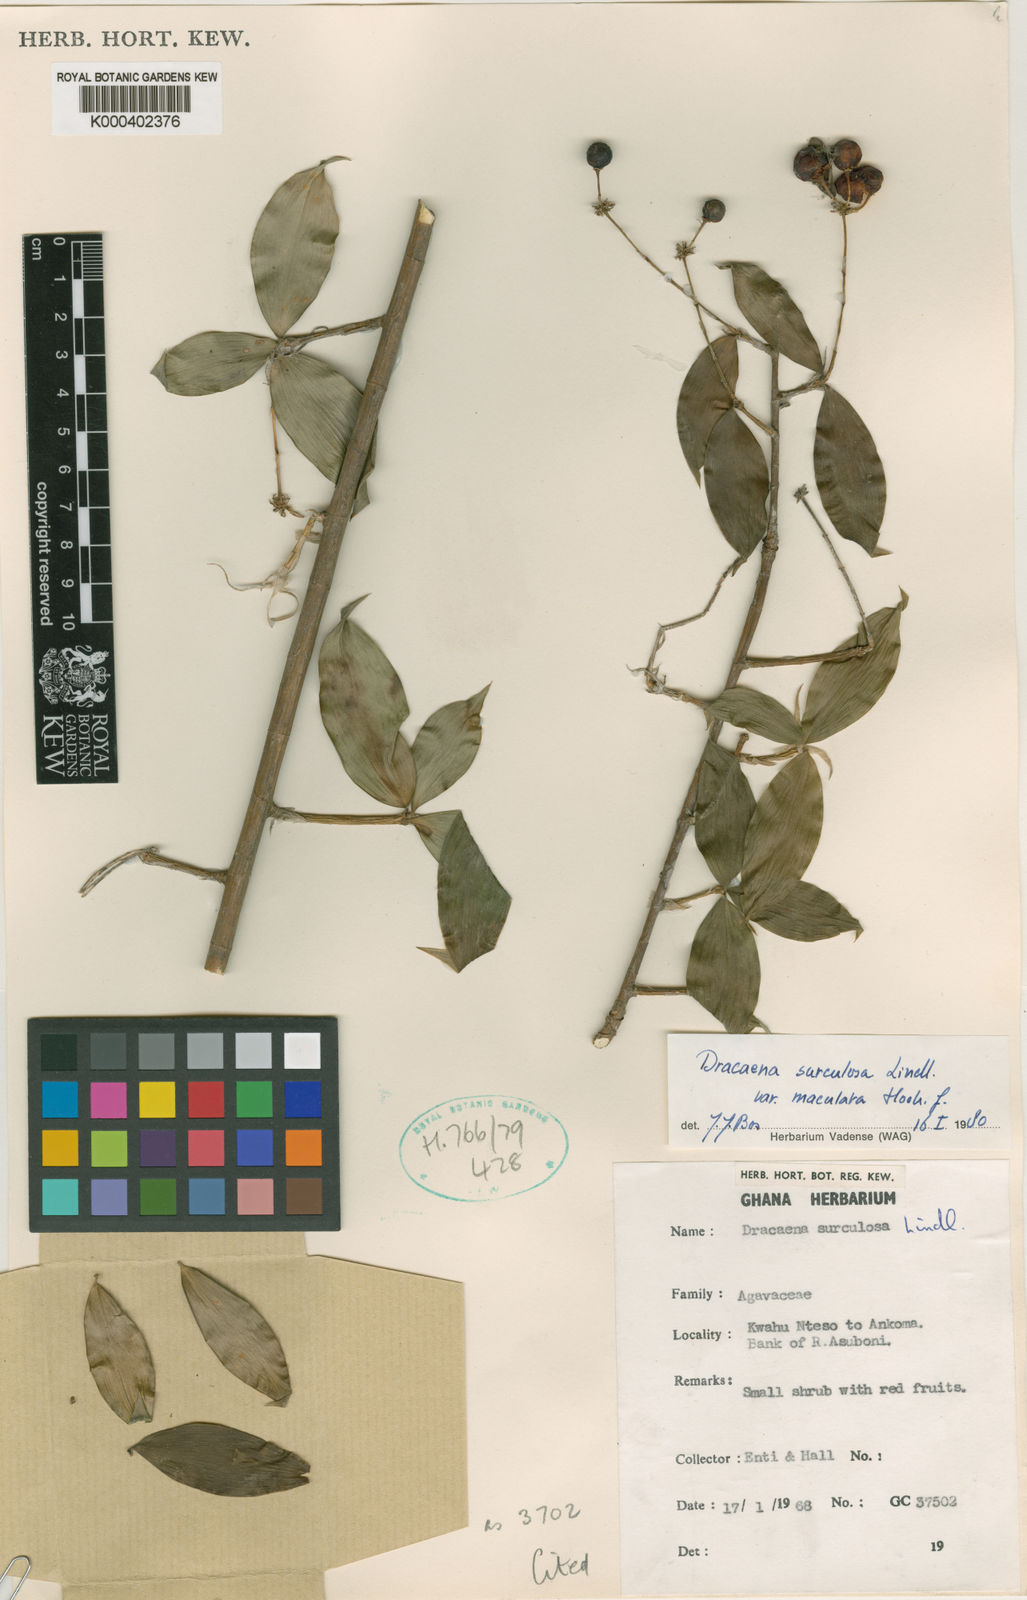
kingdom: Plantae
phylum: Tracheophyta
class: Liliopsida
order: Asparagales
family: Asparagaceae
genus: Dracaena
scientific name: Dracaena surculosa
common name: Spotted dracaena
